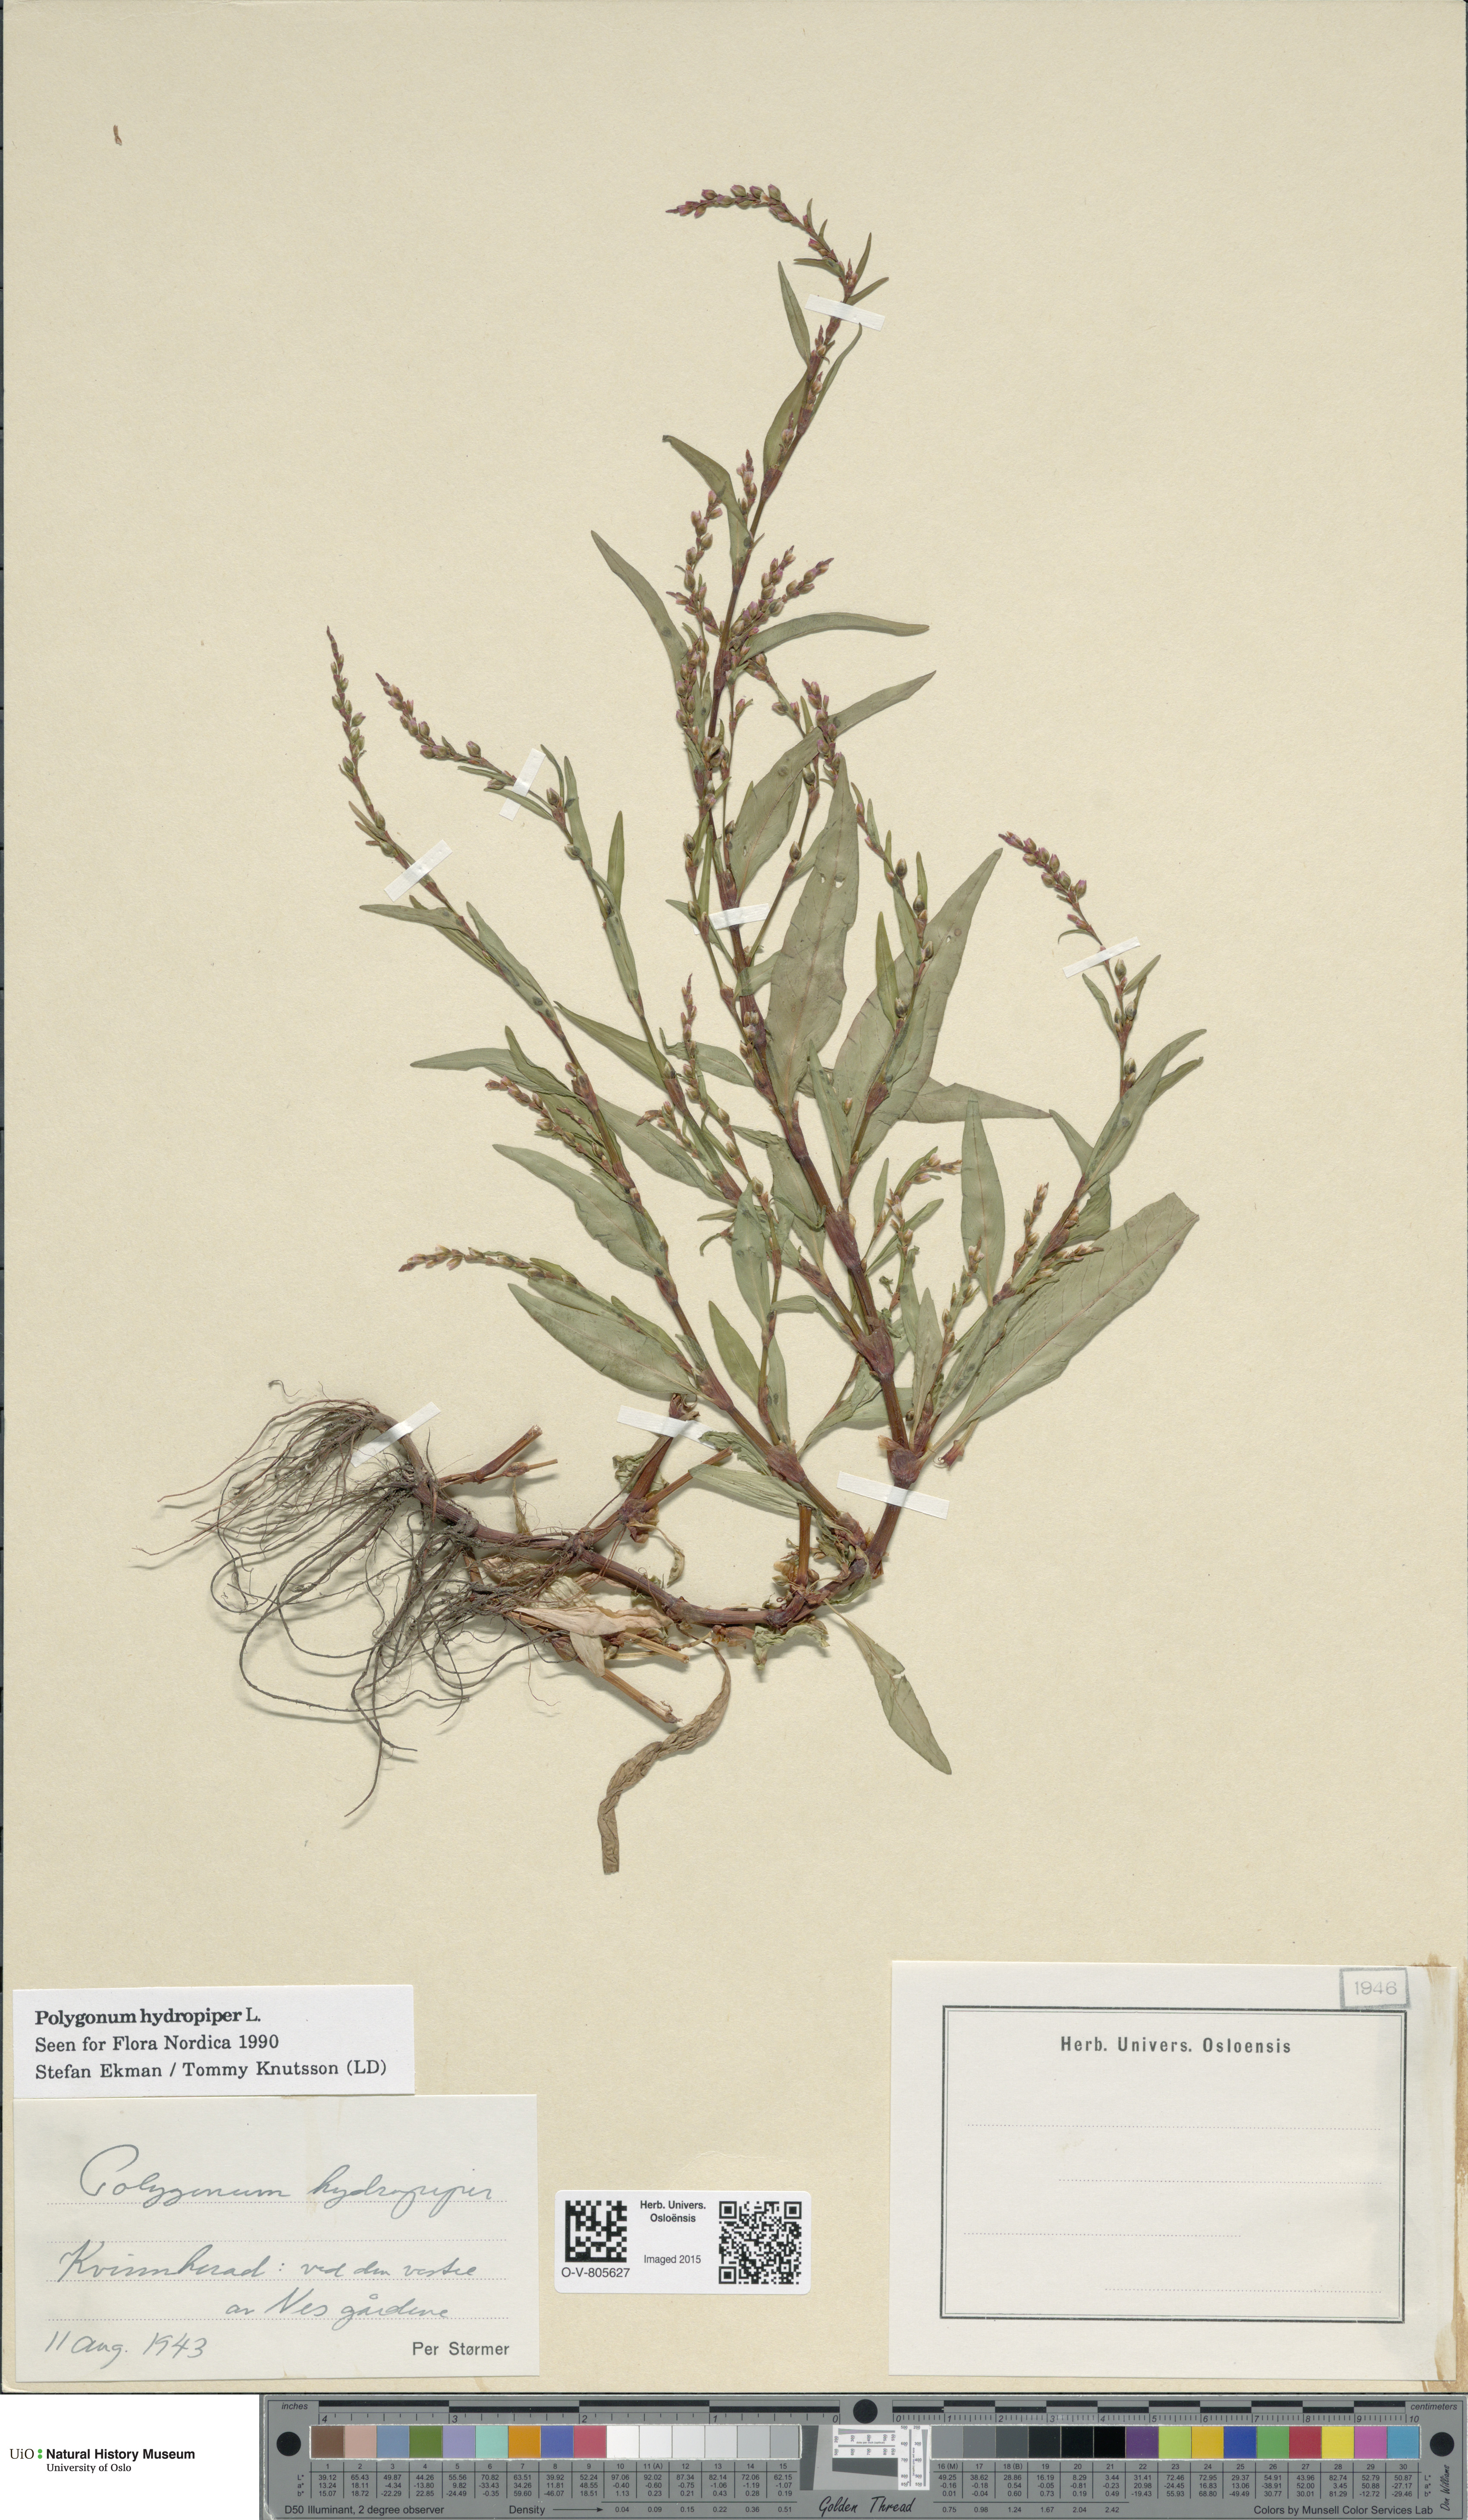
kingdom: Plantae
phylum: Tracheophyta
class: Magnoliopsida
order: Caryophyllales
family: Polygonaceae
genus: Persicaria
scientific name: Persicaria hydropiper
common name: Water-pepper
